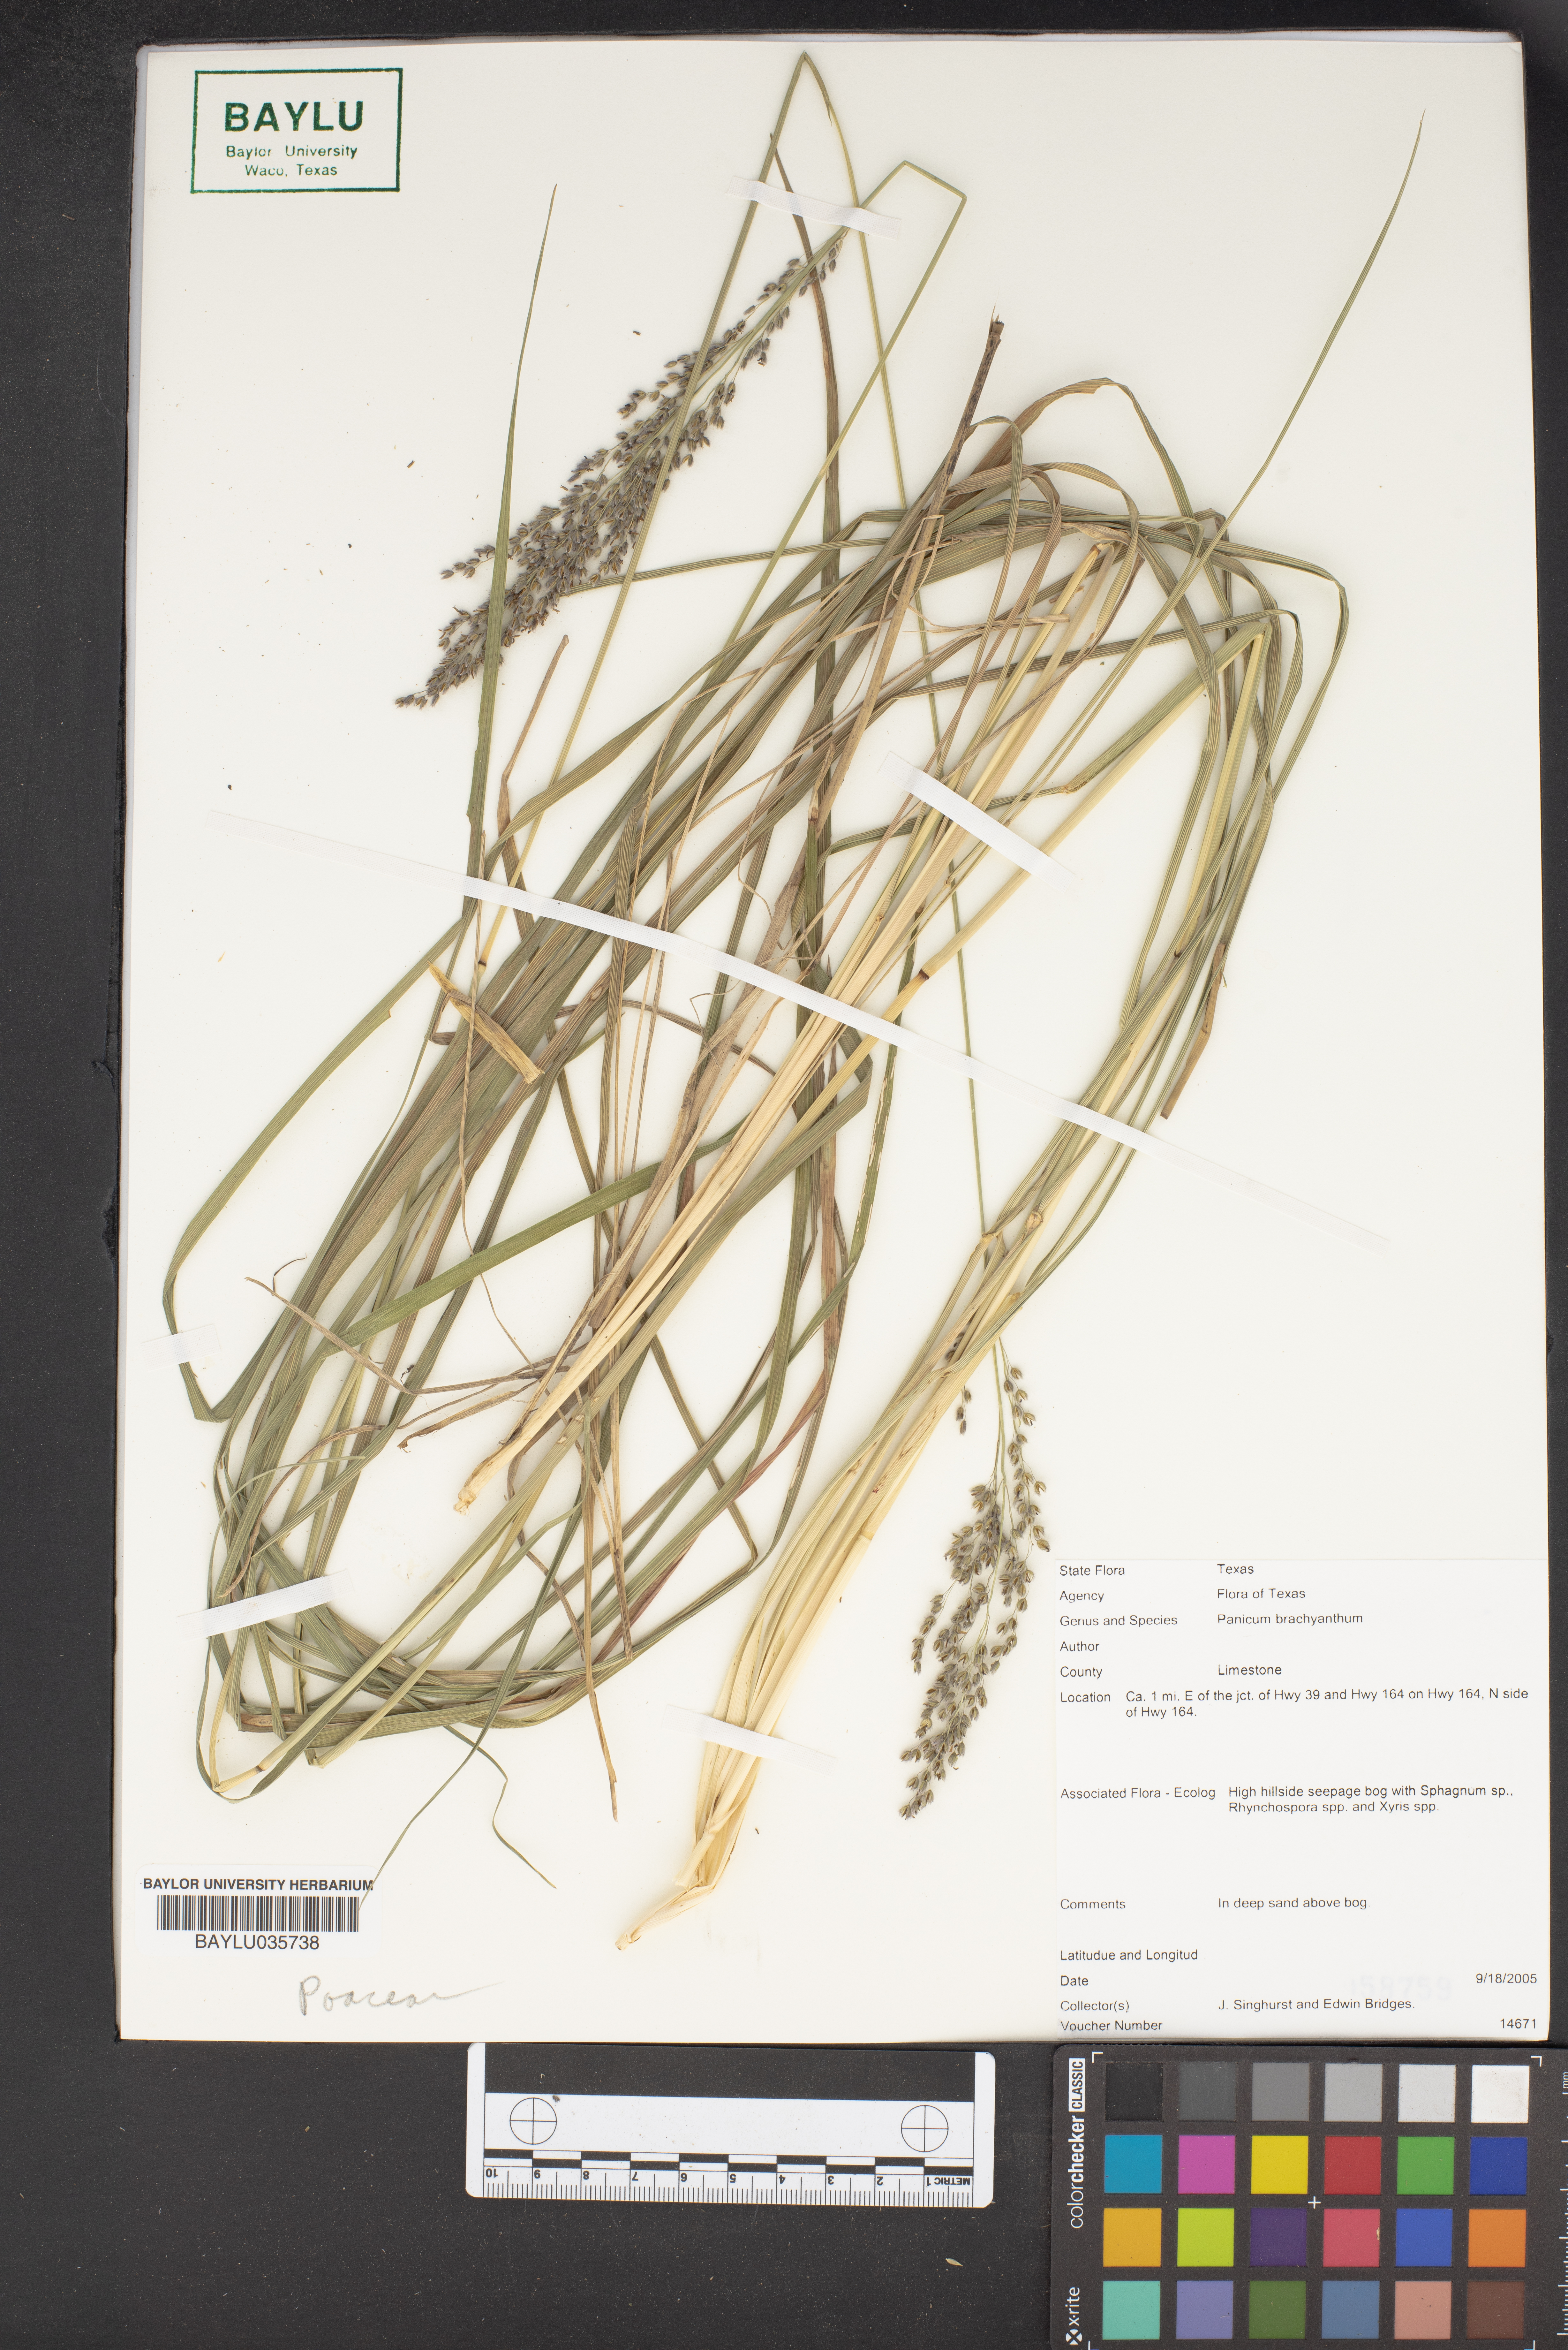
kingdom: Plantae
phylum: Tracheophyta
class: Liliopsida
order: Poales
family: Poaceae
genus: Kellochloa
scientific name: Kellochloa brachyantha
